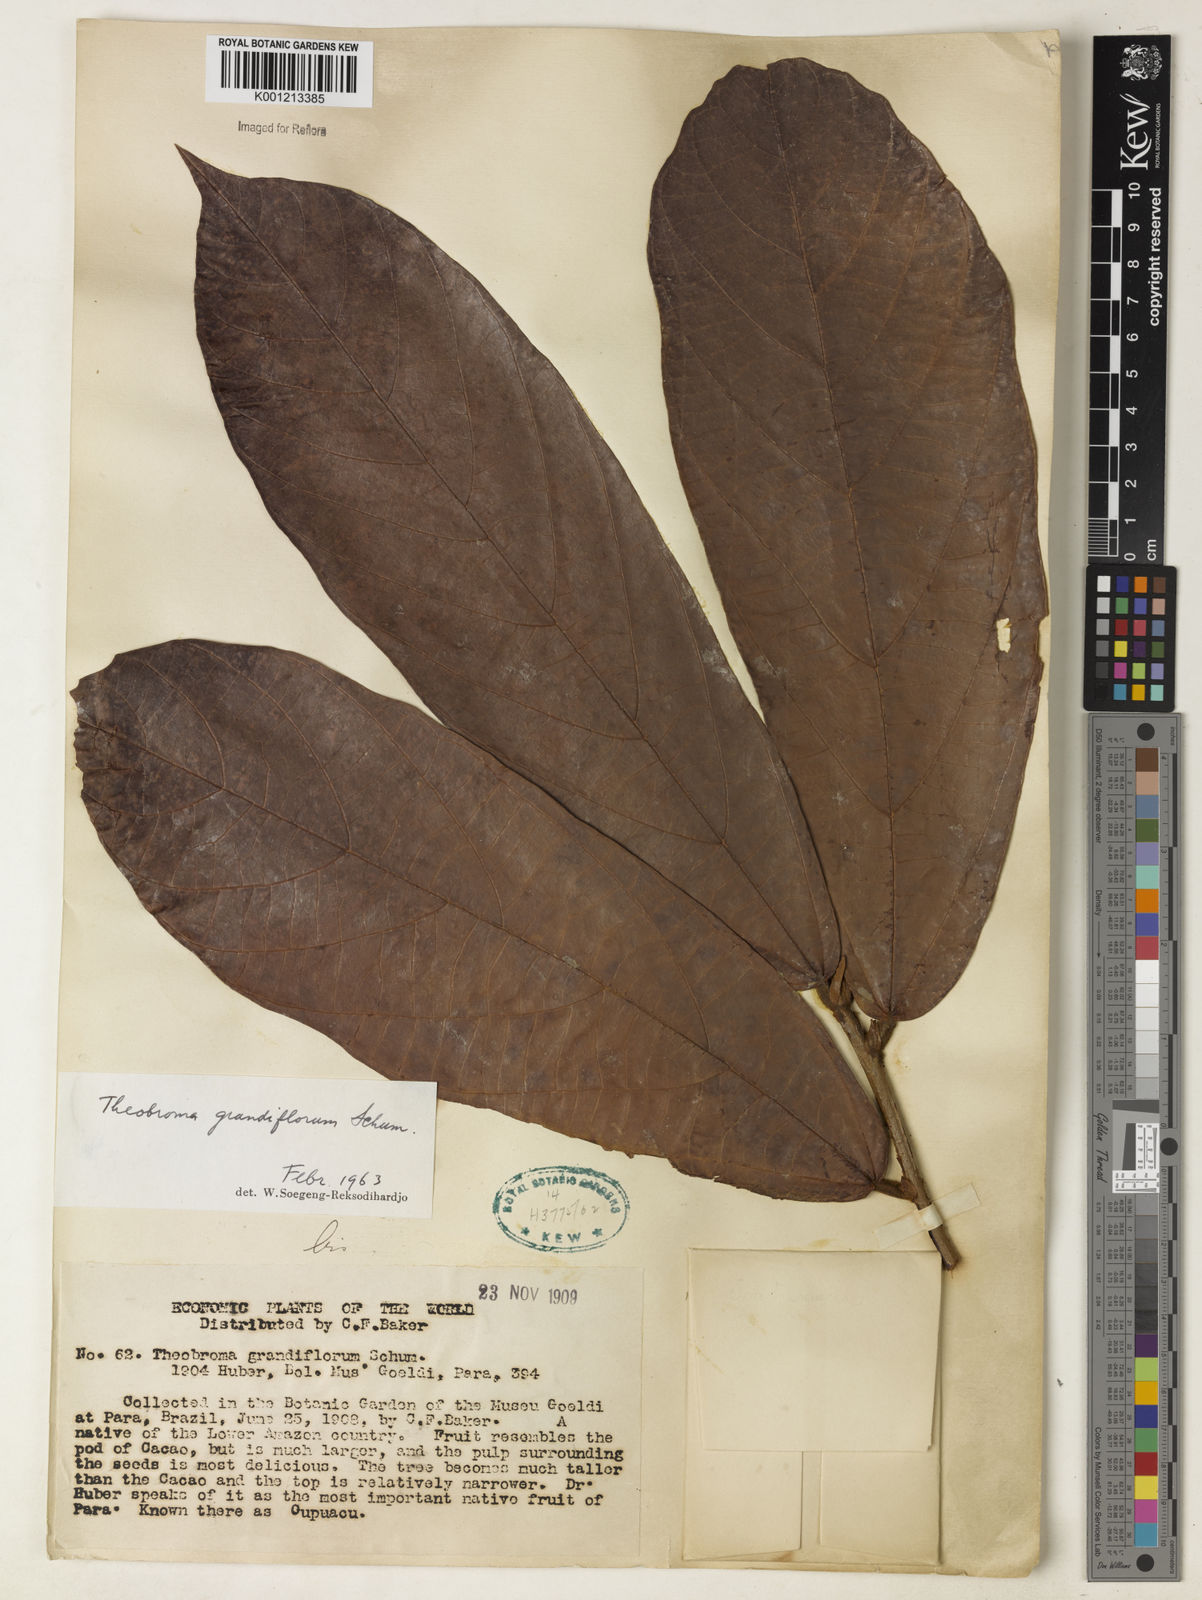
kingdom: Plantae
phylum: Tracheophyta
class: Magnoliopsida
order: Malvales
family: Malvaceae
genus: Theobroma
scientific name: Theobroma grandiflorum
